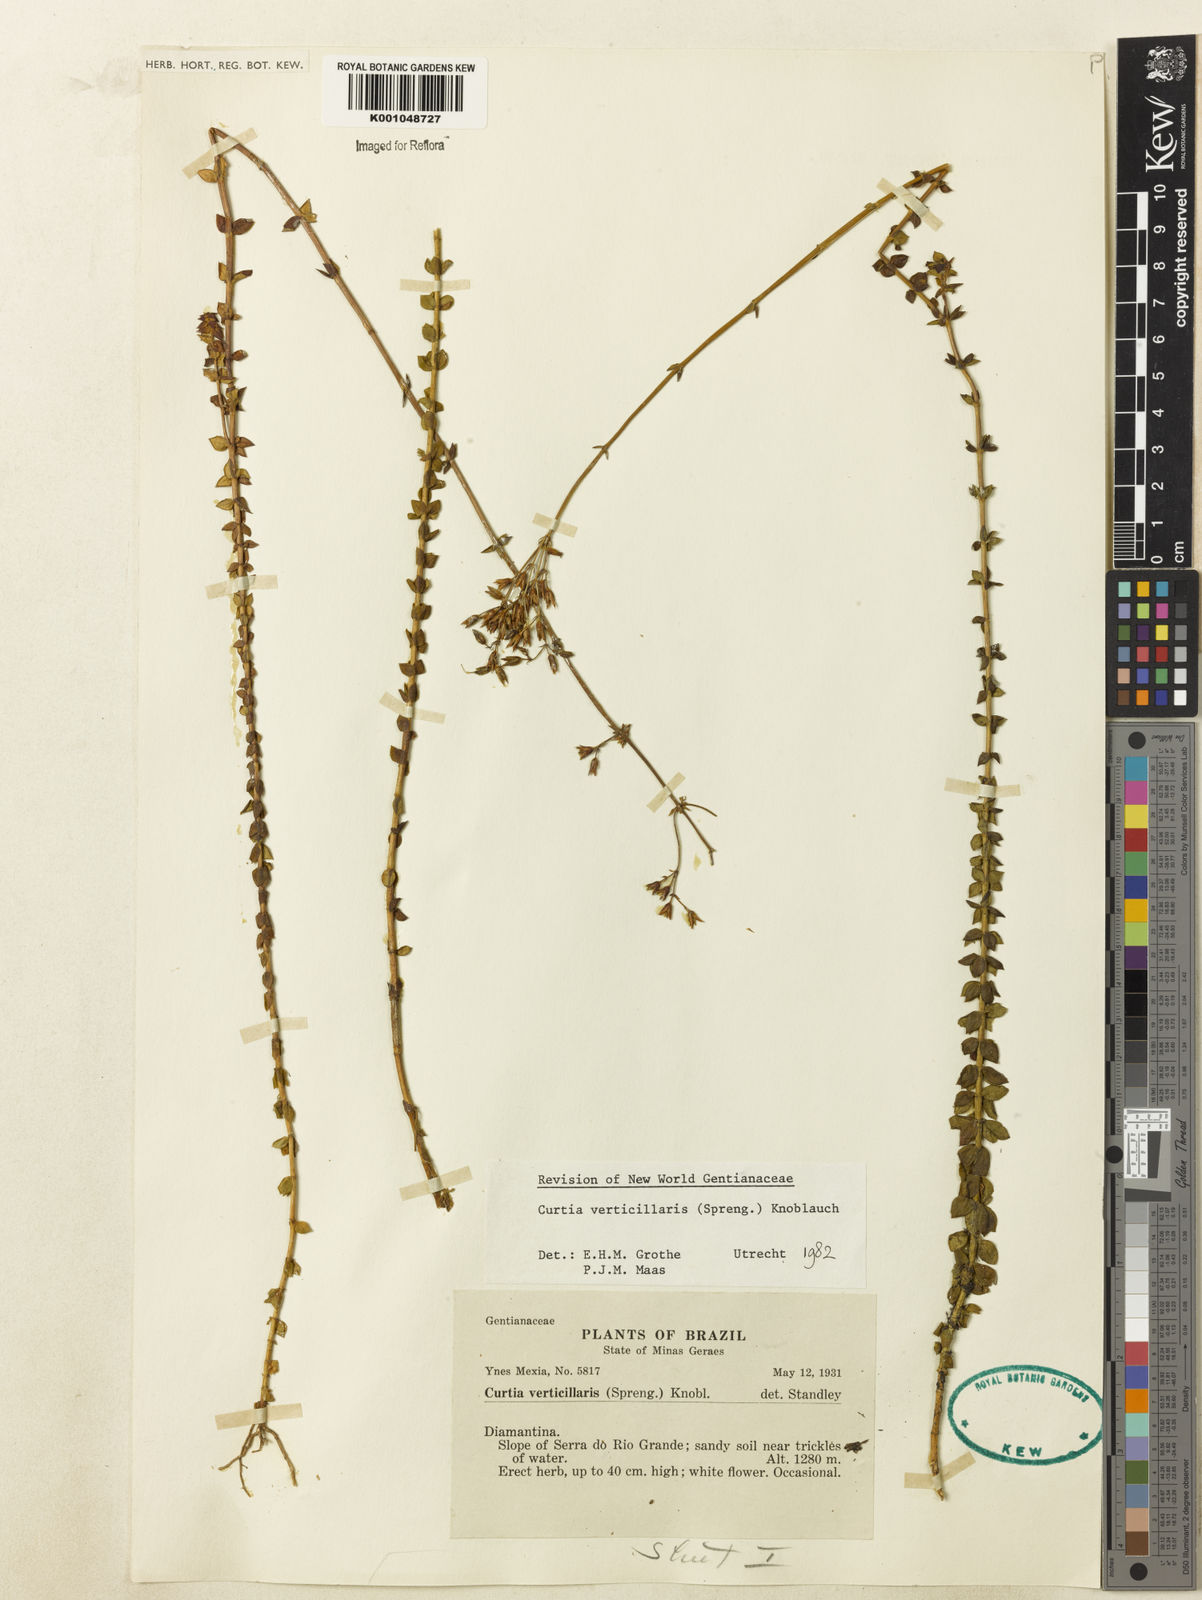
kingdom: Plantae
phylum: Tracheophyta
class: Magnoliopsida
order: Gentianales
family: Gentianaceae
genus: Curtia
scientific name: Curtia verticillaris
